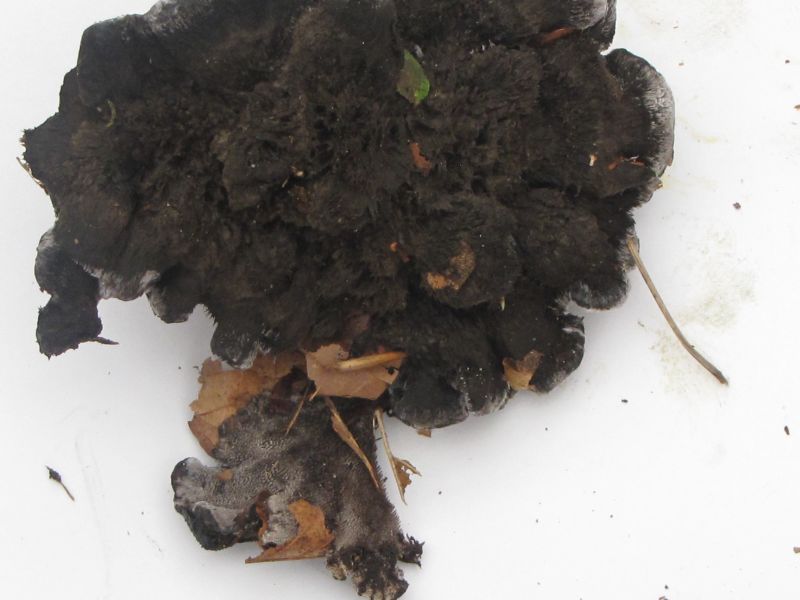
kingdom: Fungi
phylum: Basidiomycota
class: Agaricomycetes
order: Thelephorales
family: Thelephoraceae
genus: Phellodon
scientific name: Phellodon
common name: mørk duftpigsvamp
